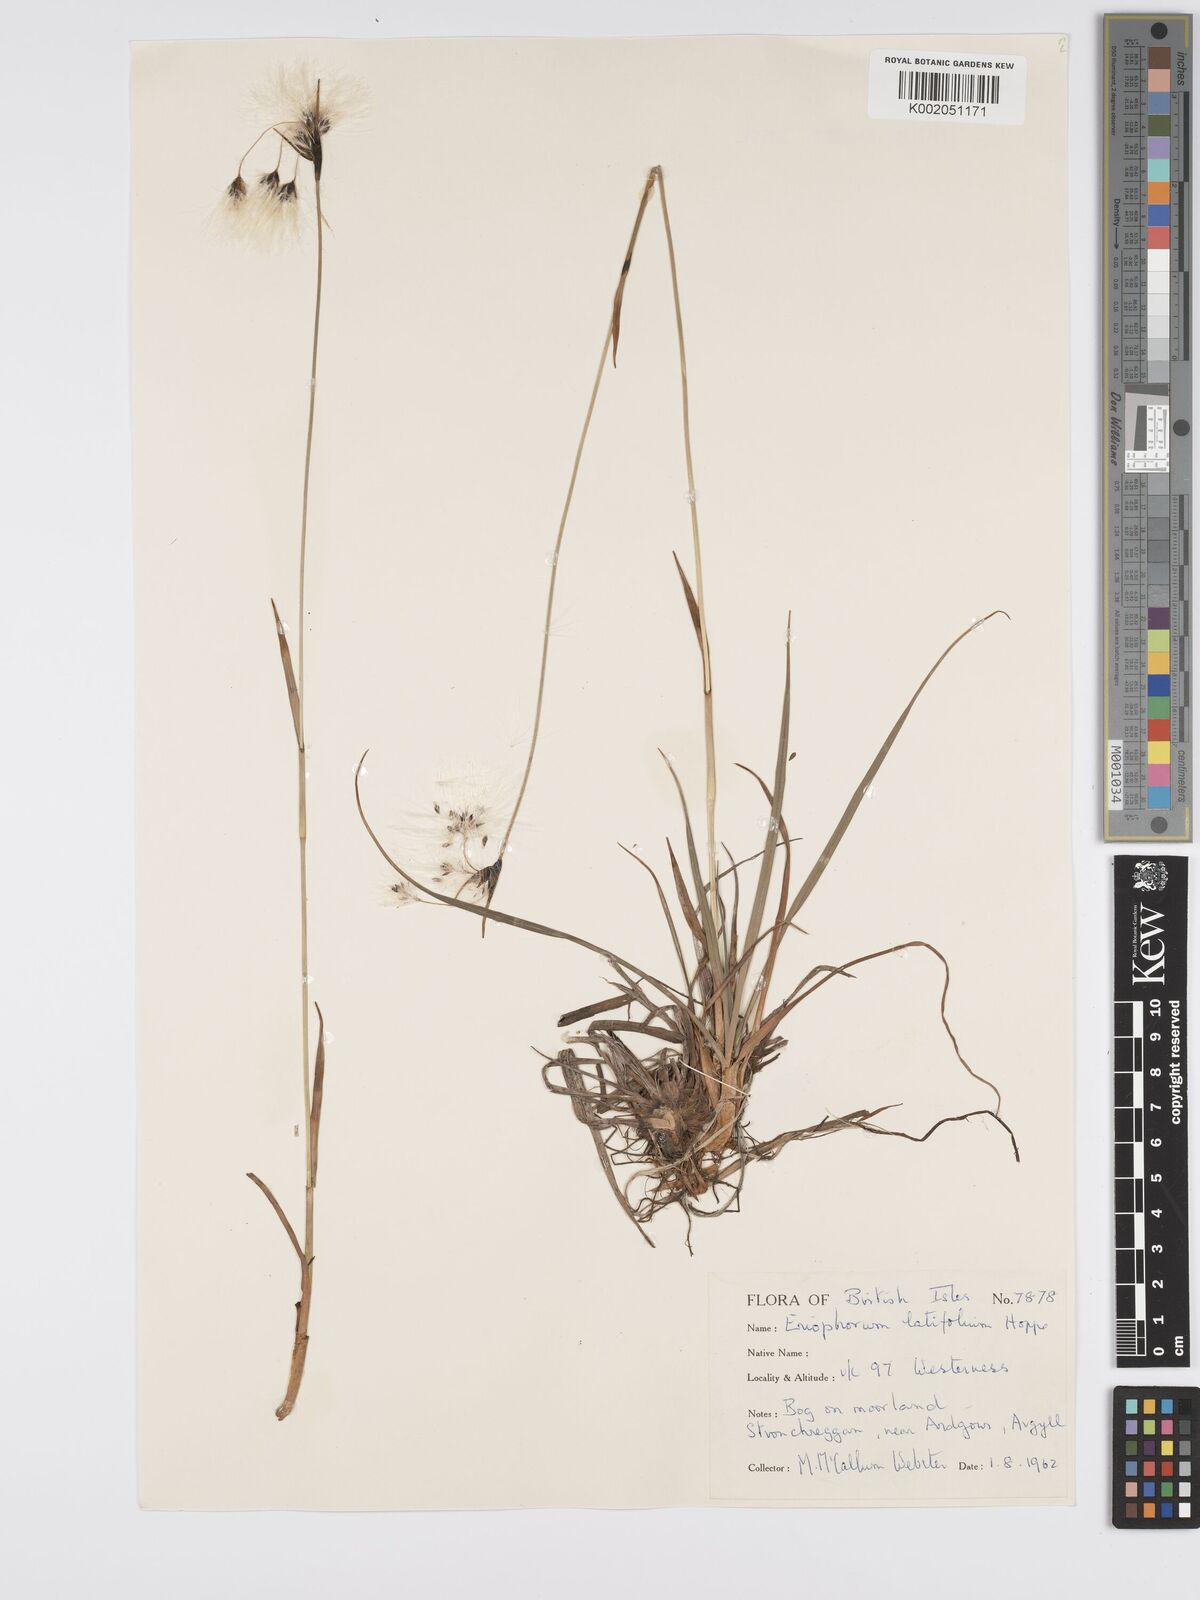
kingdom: Plantae
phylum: Tracheophyta
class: Liliopsida
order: Poales
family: Cyperaceae
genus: Eriophorum
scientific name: Eriophorum latifolium
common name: Broad-leaved cottongrass
